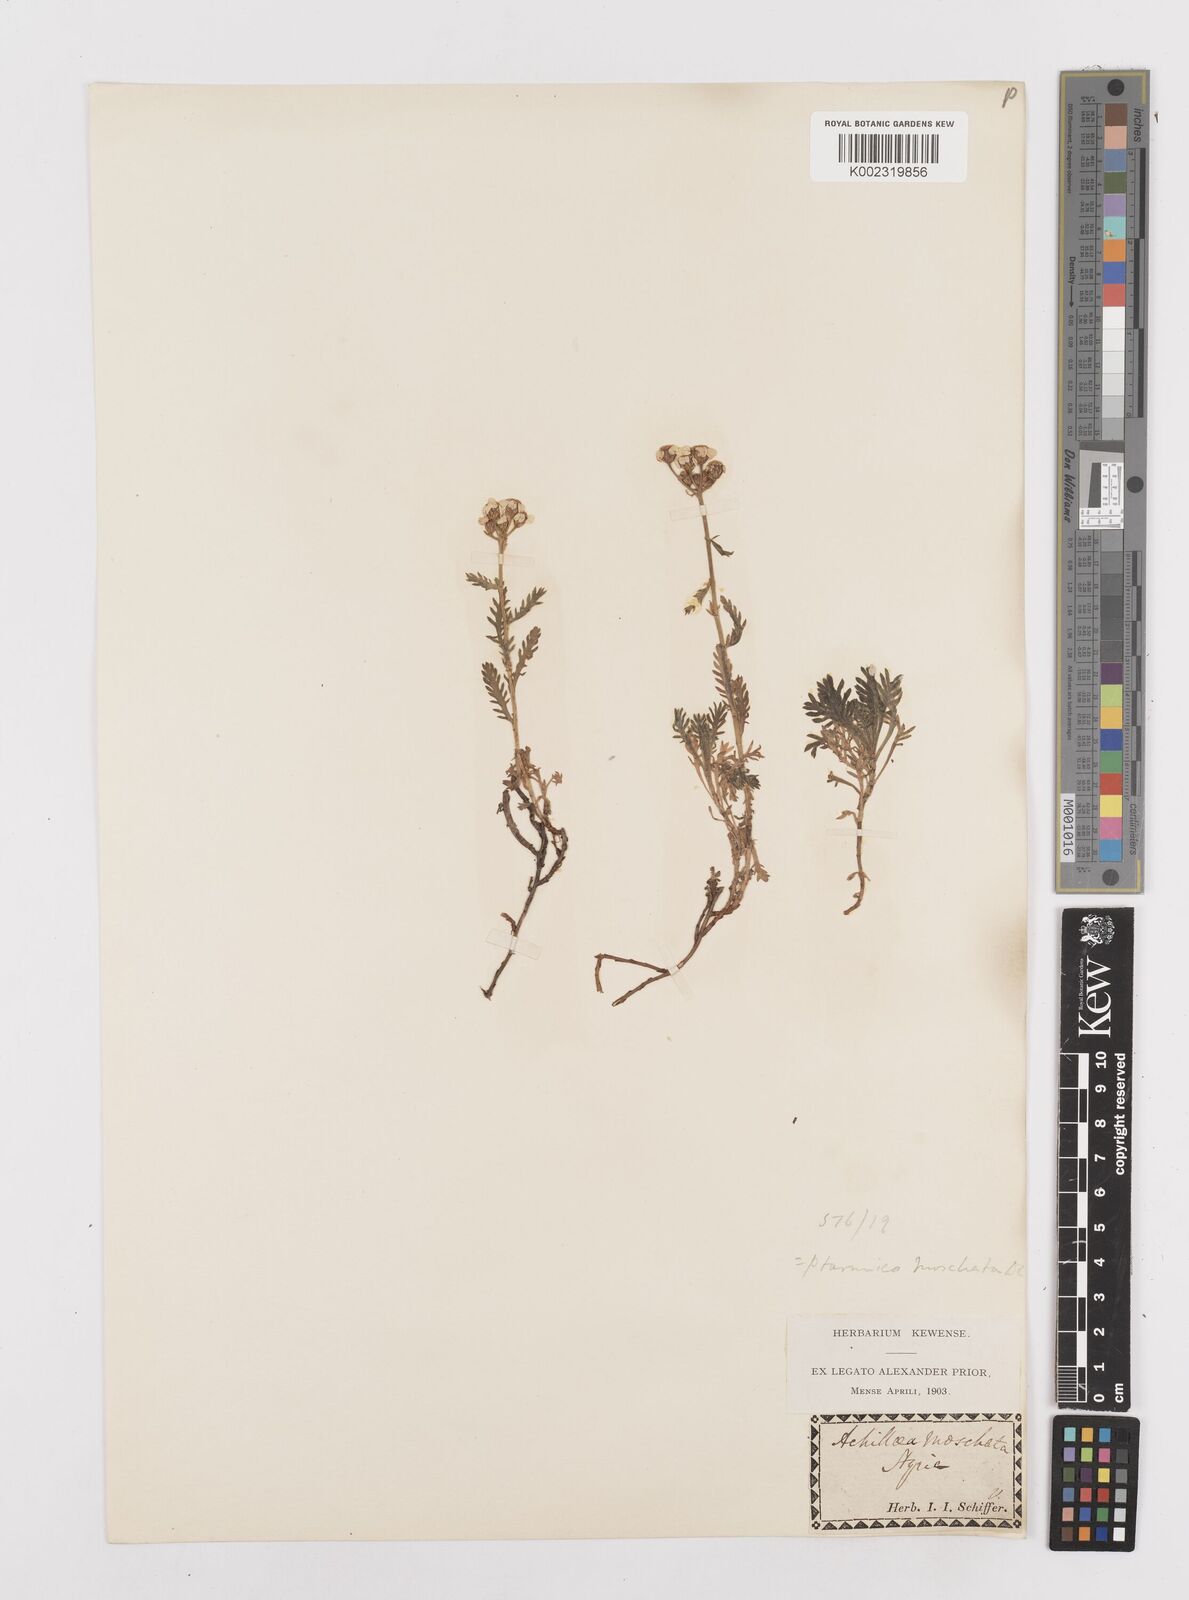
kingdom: Plantae
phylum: Tracheophyta
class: Magnoliopsida
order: Asterales
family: Asteraceae
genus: Achillea
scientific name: Achillea erba-rotta
